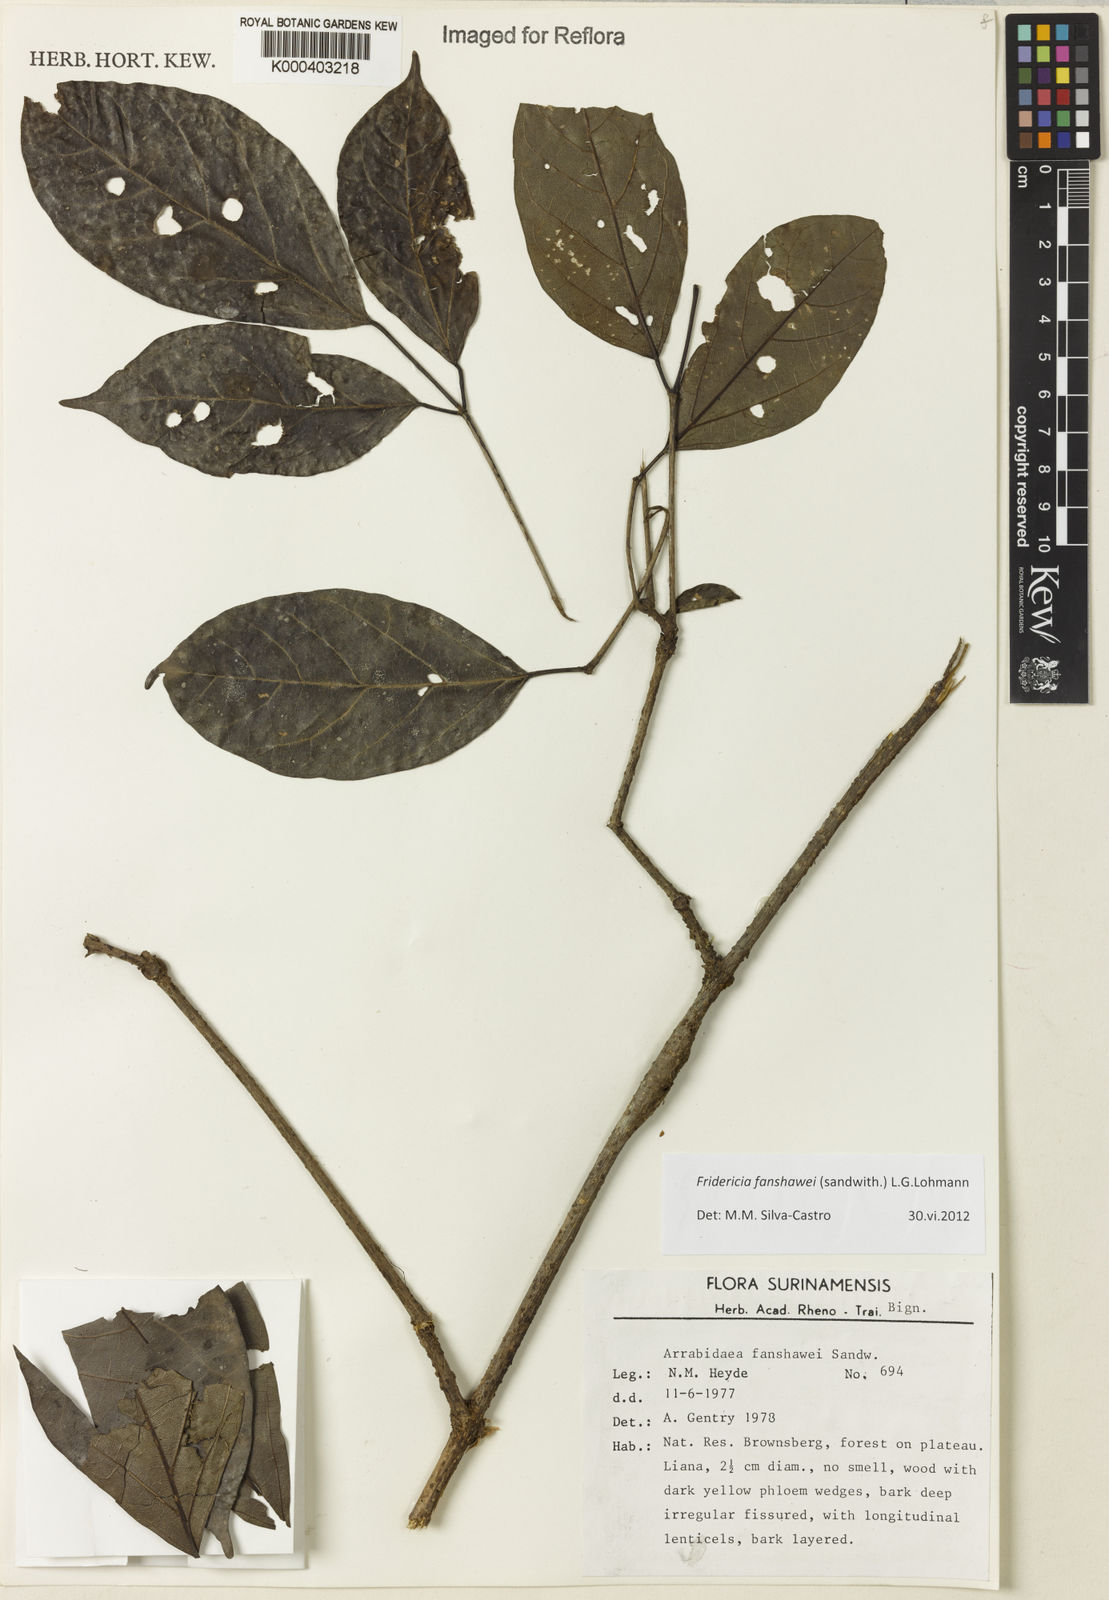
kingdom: Plantae
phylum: Tracheophyta
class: Magnoliopsida
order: Lamiales
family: Bignoniaceae
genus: Fridericia
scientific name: Fridericia fanshawei
